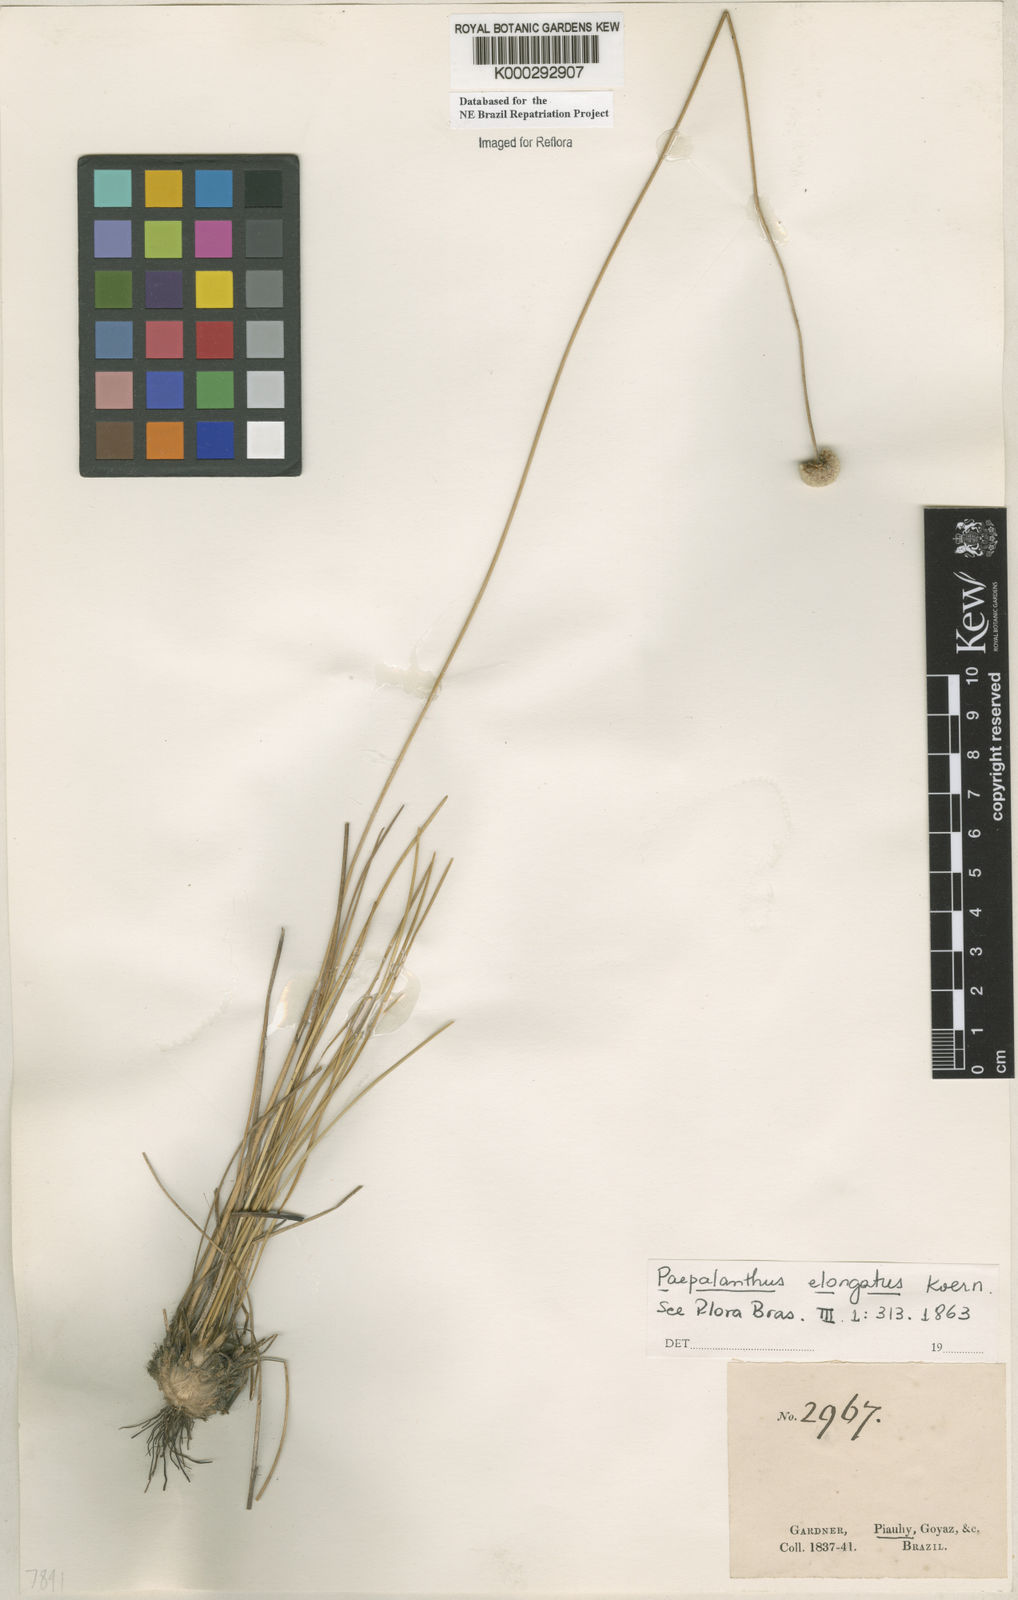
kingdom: Plantae
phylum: Tracheophyta
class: Liliopsida
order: Poales
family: Eriocaulaceae
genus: Paepalanthus
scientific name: Paepalanthus
